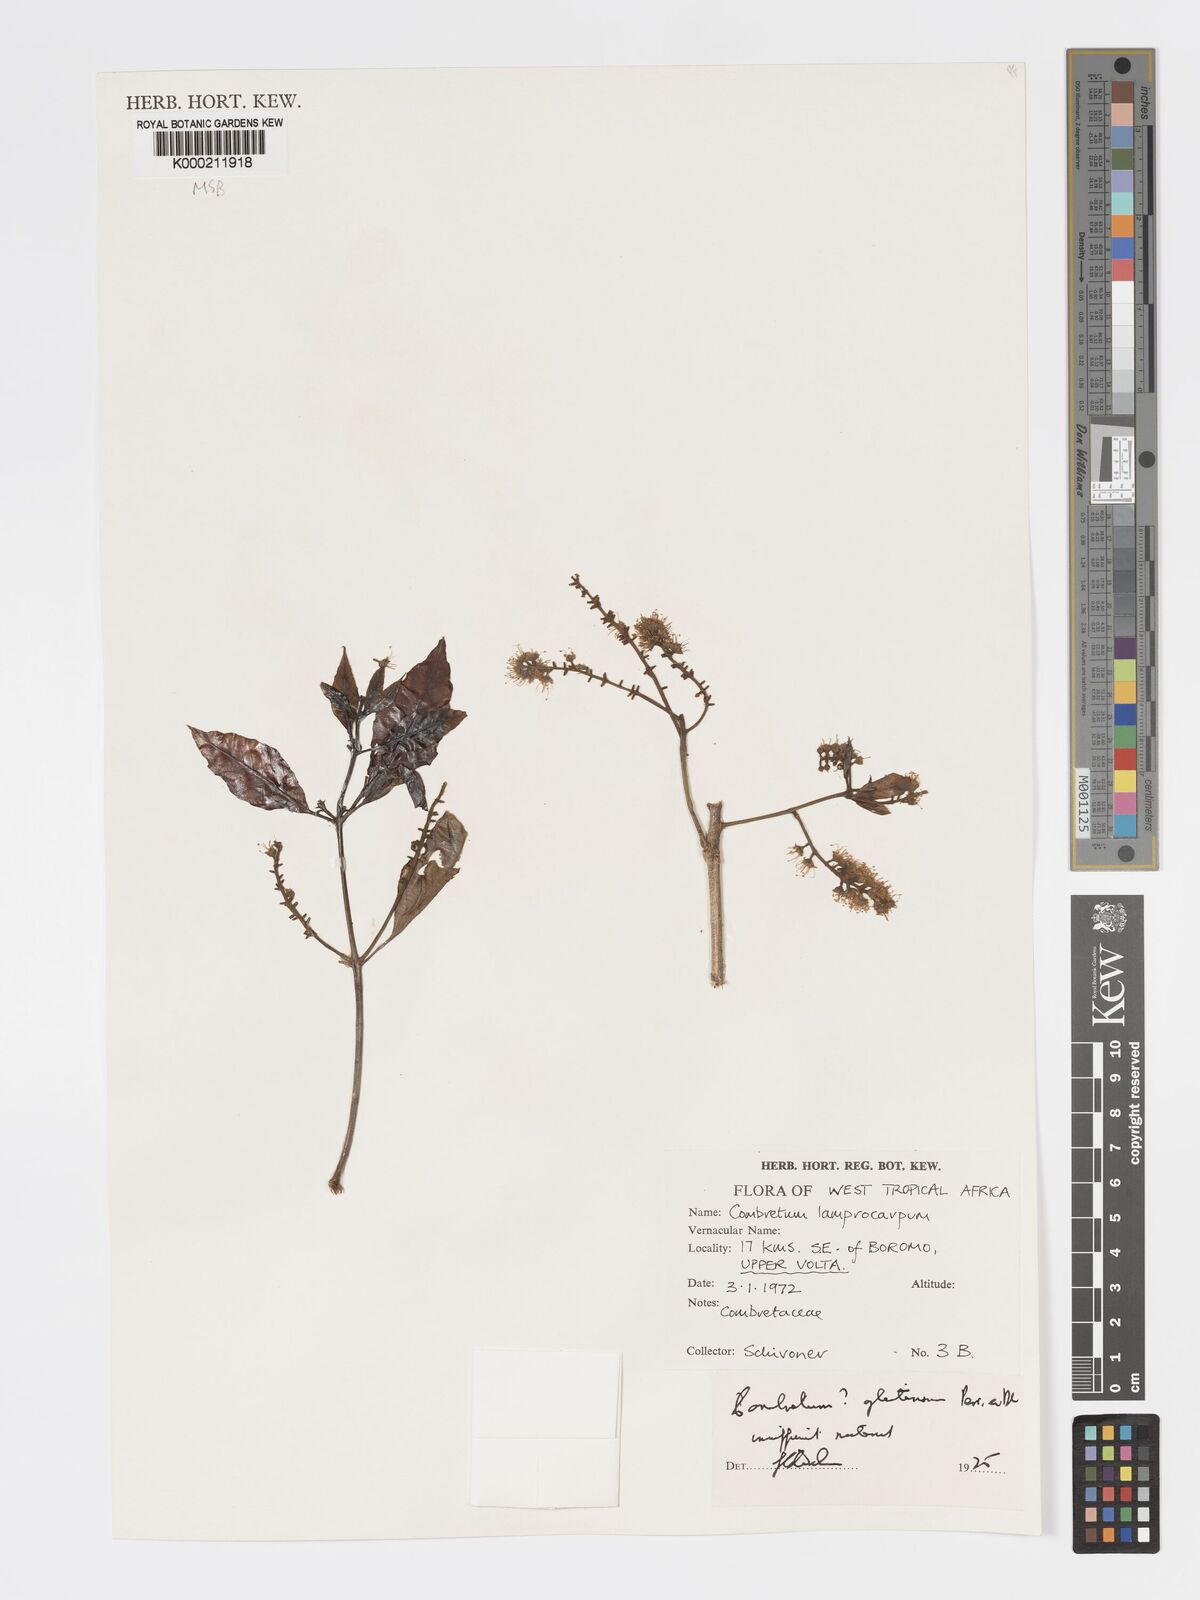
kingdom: Plantae
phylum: Tracheophyta
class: Magnoliopsida
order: Myrtales
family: Combretaceae
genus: Combretum
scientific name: Combretum glutinosum
